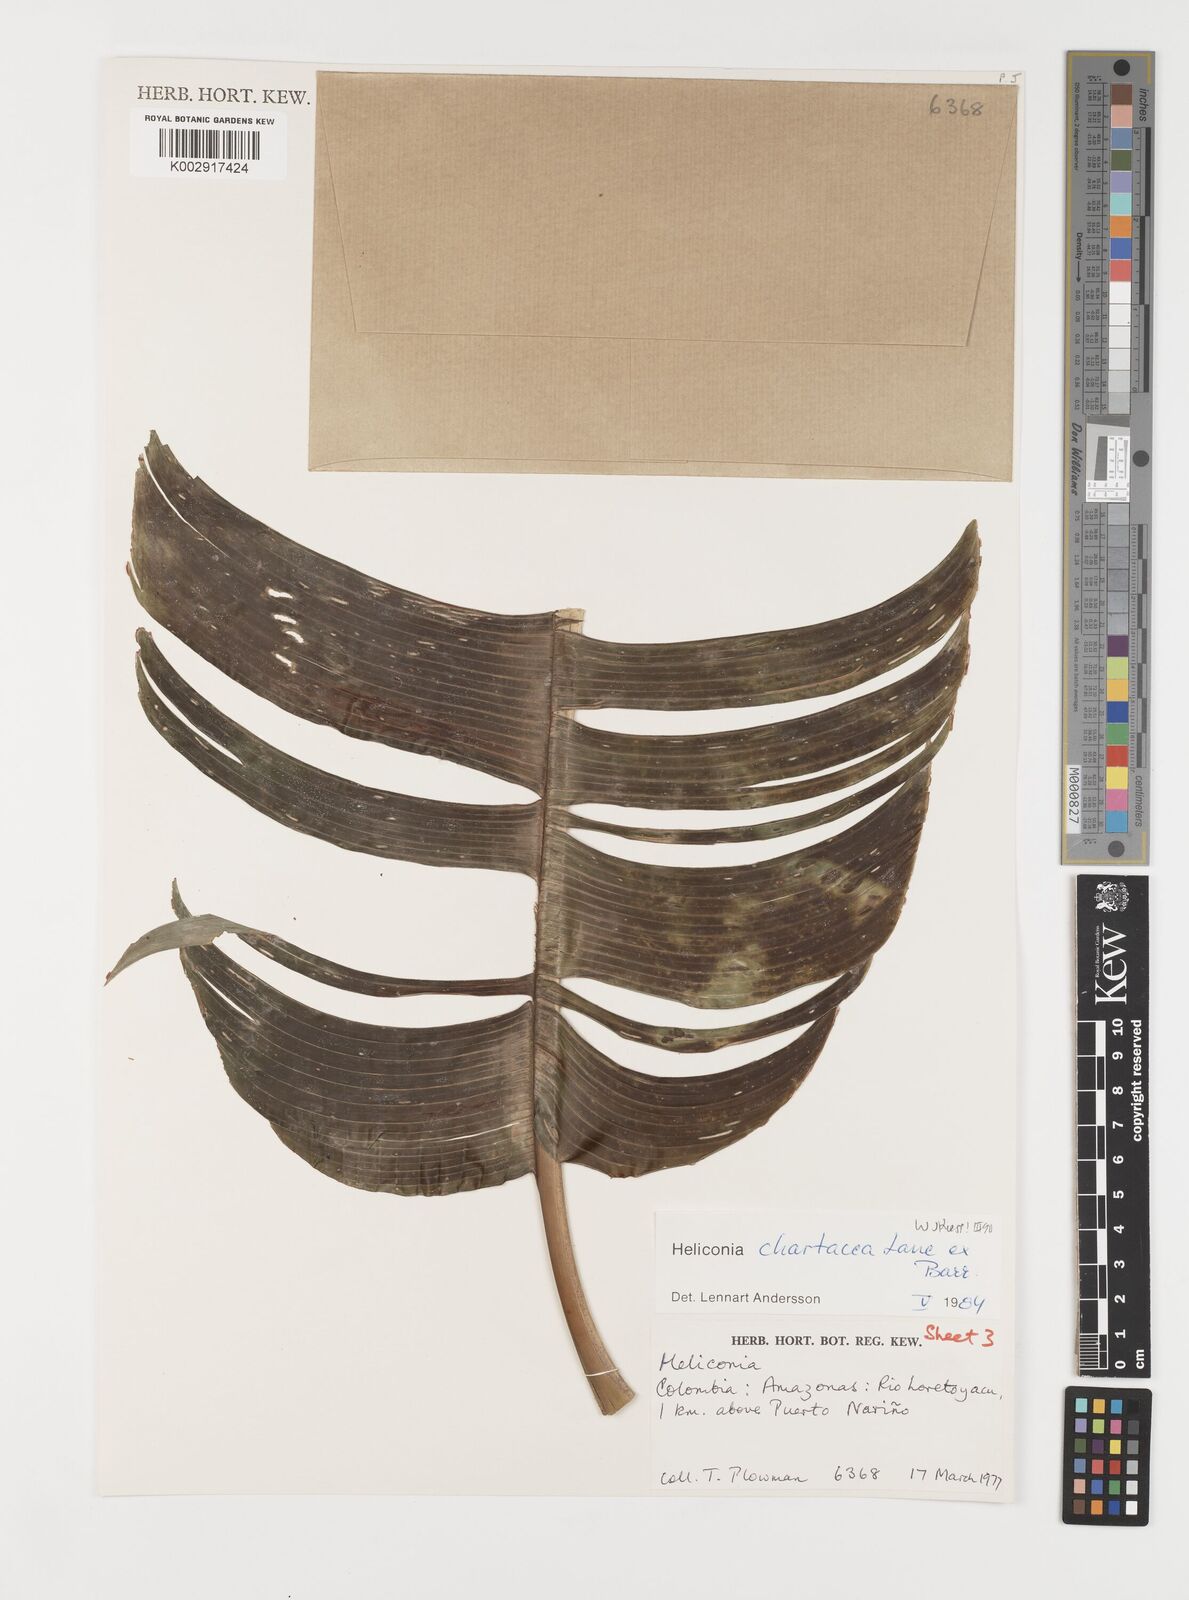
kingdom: Plantae
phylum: Tracheophyta
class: Liliopsida
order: Zingiberales
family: Heliconiaceae
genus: Heliconia
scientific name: Heliconia chartacea
